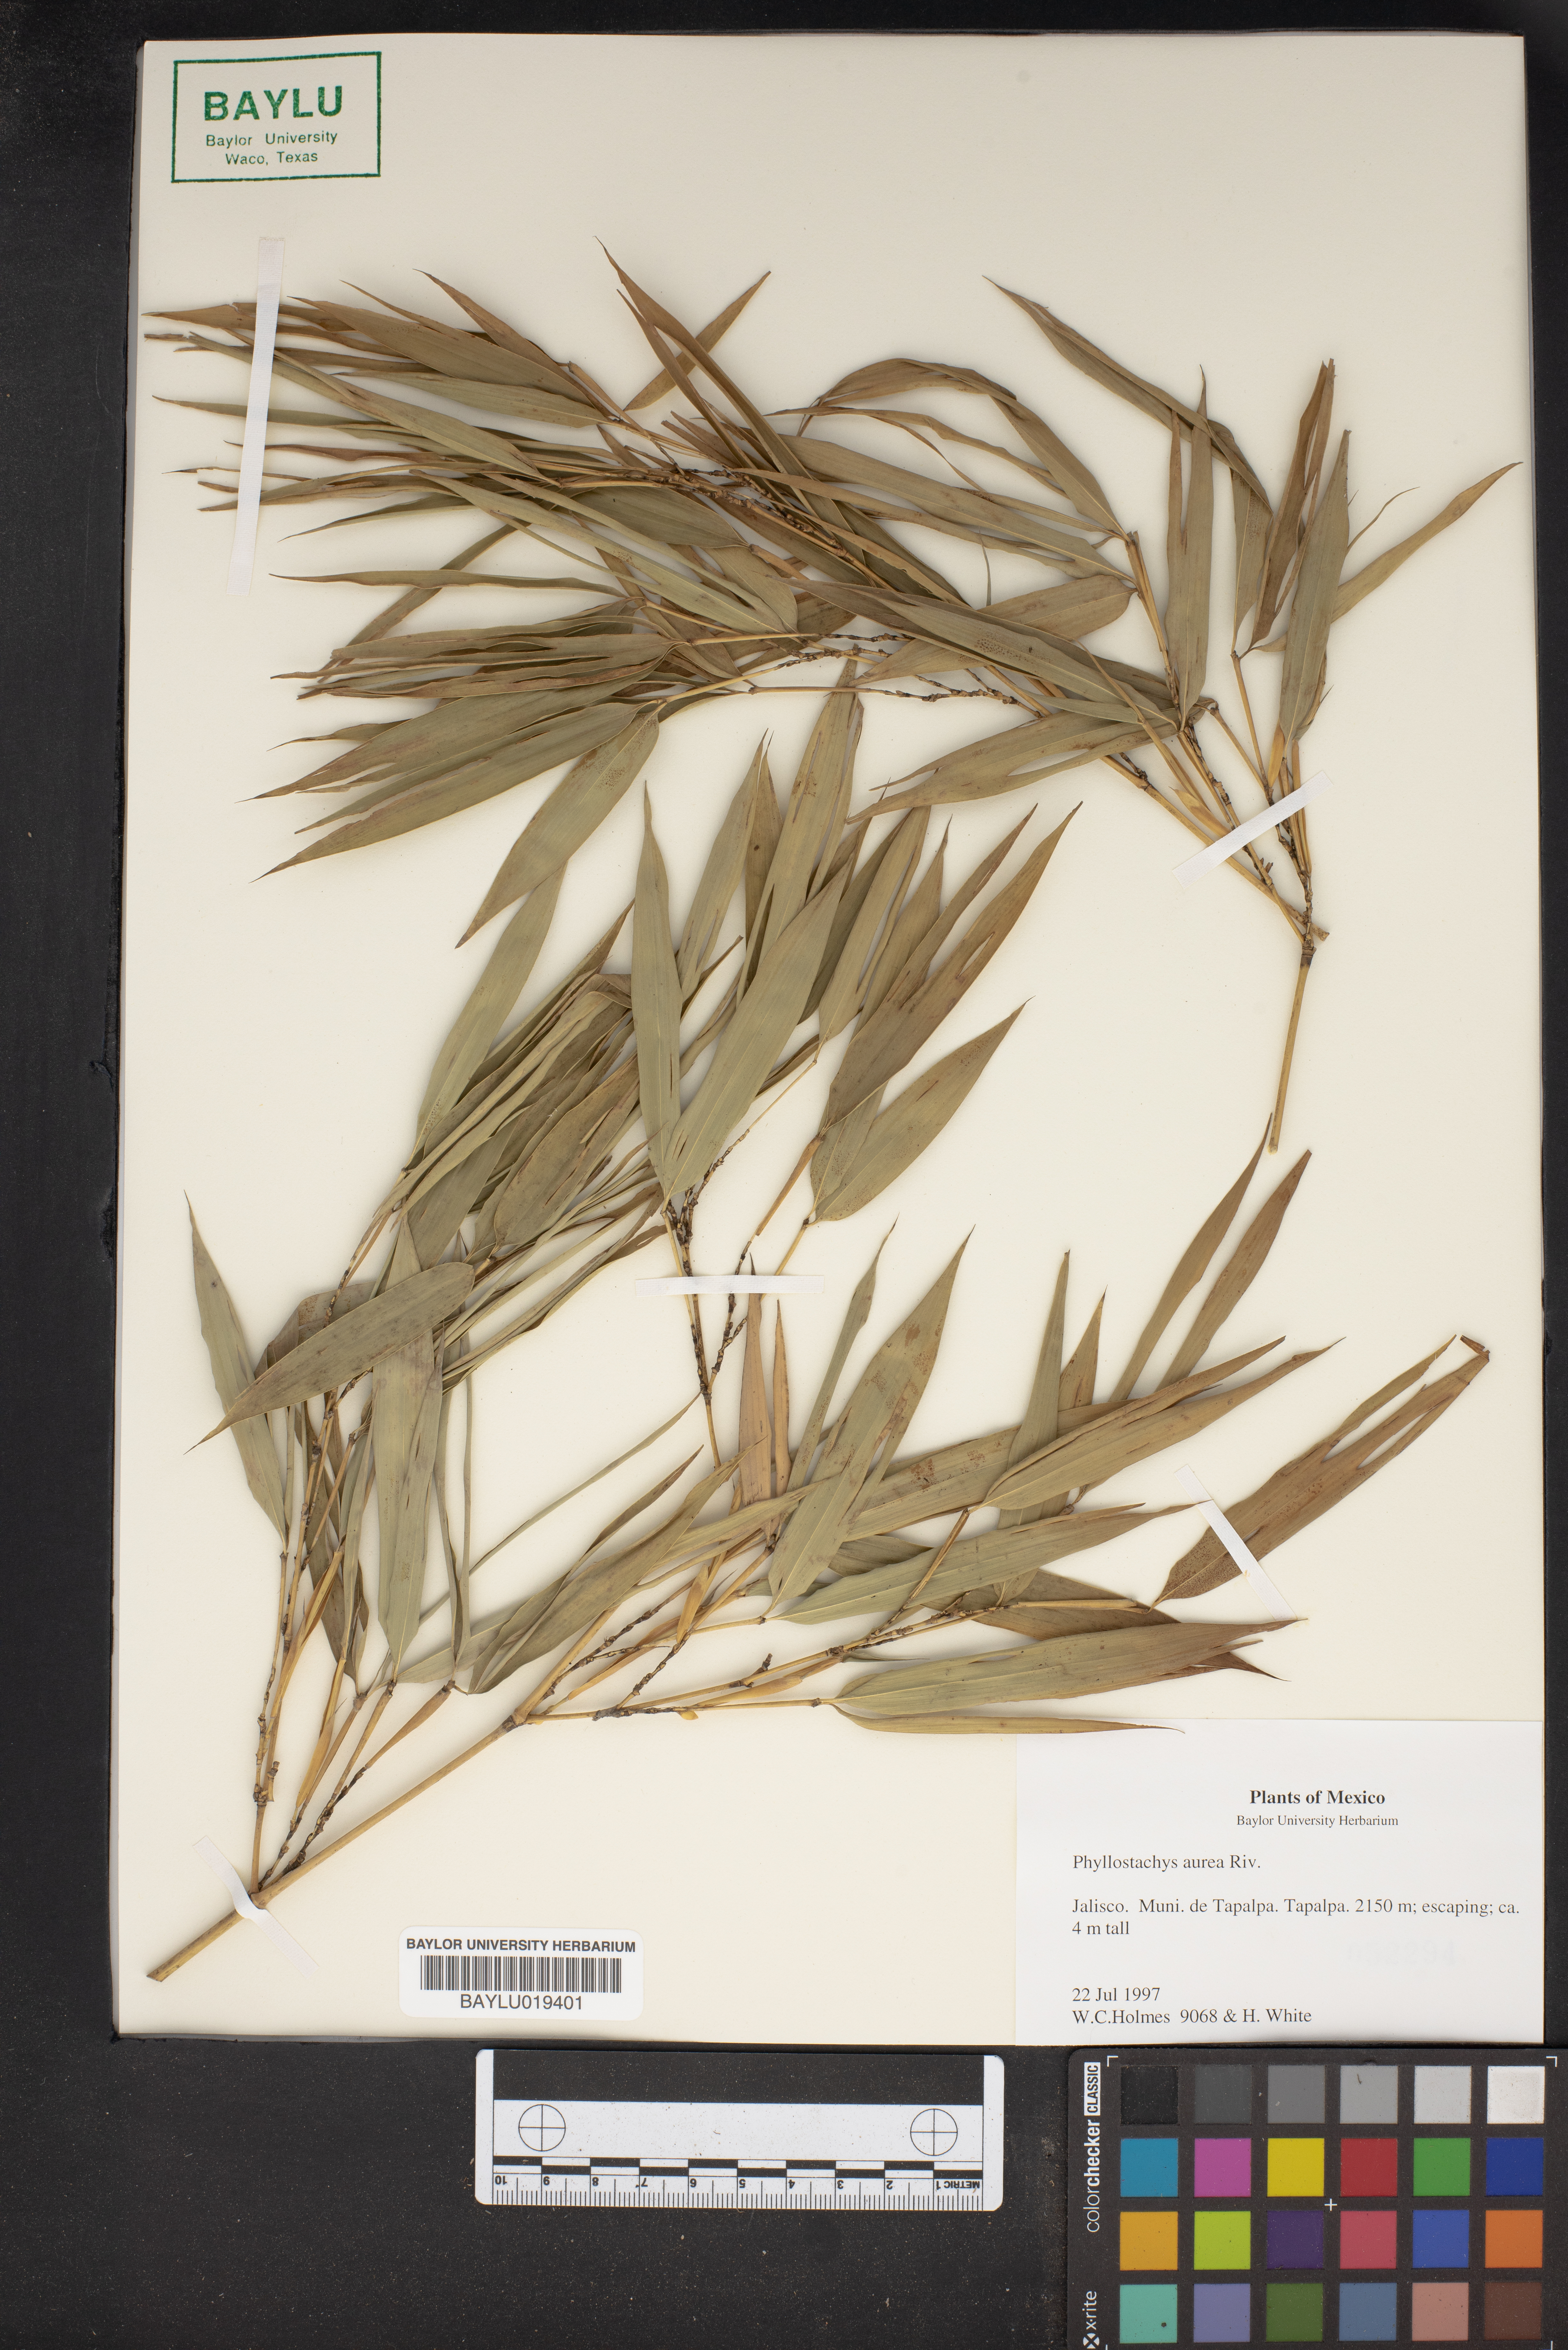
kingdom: Plantae
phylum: Tracheophyta
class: Liliopsida
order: Poales
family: Poaceae
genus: Phyllostachys
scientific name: Phyllostachys aurea
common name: Golden bamboo
